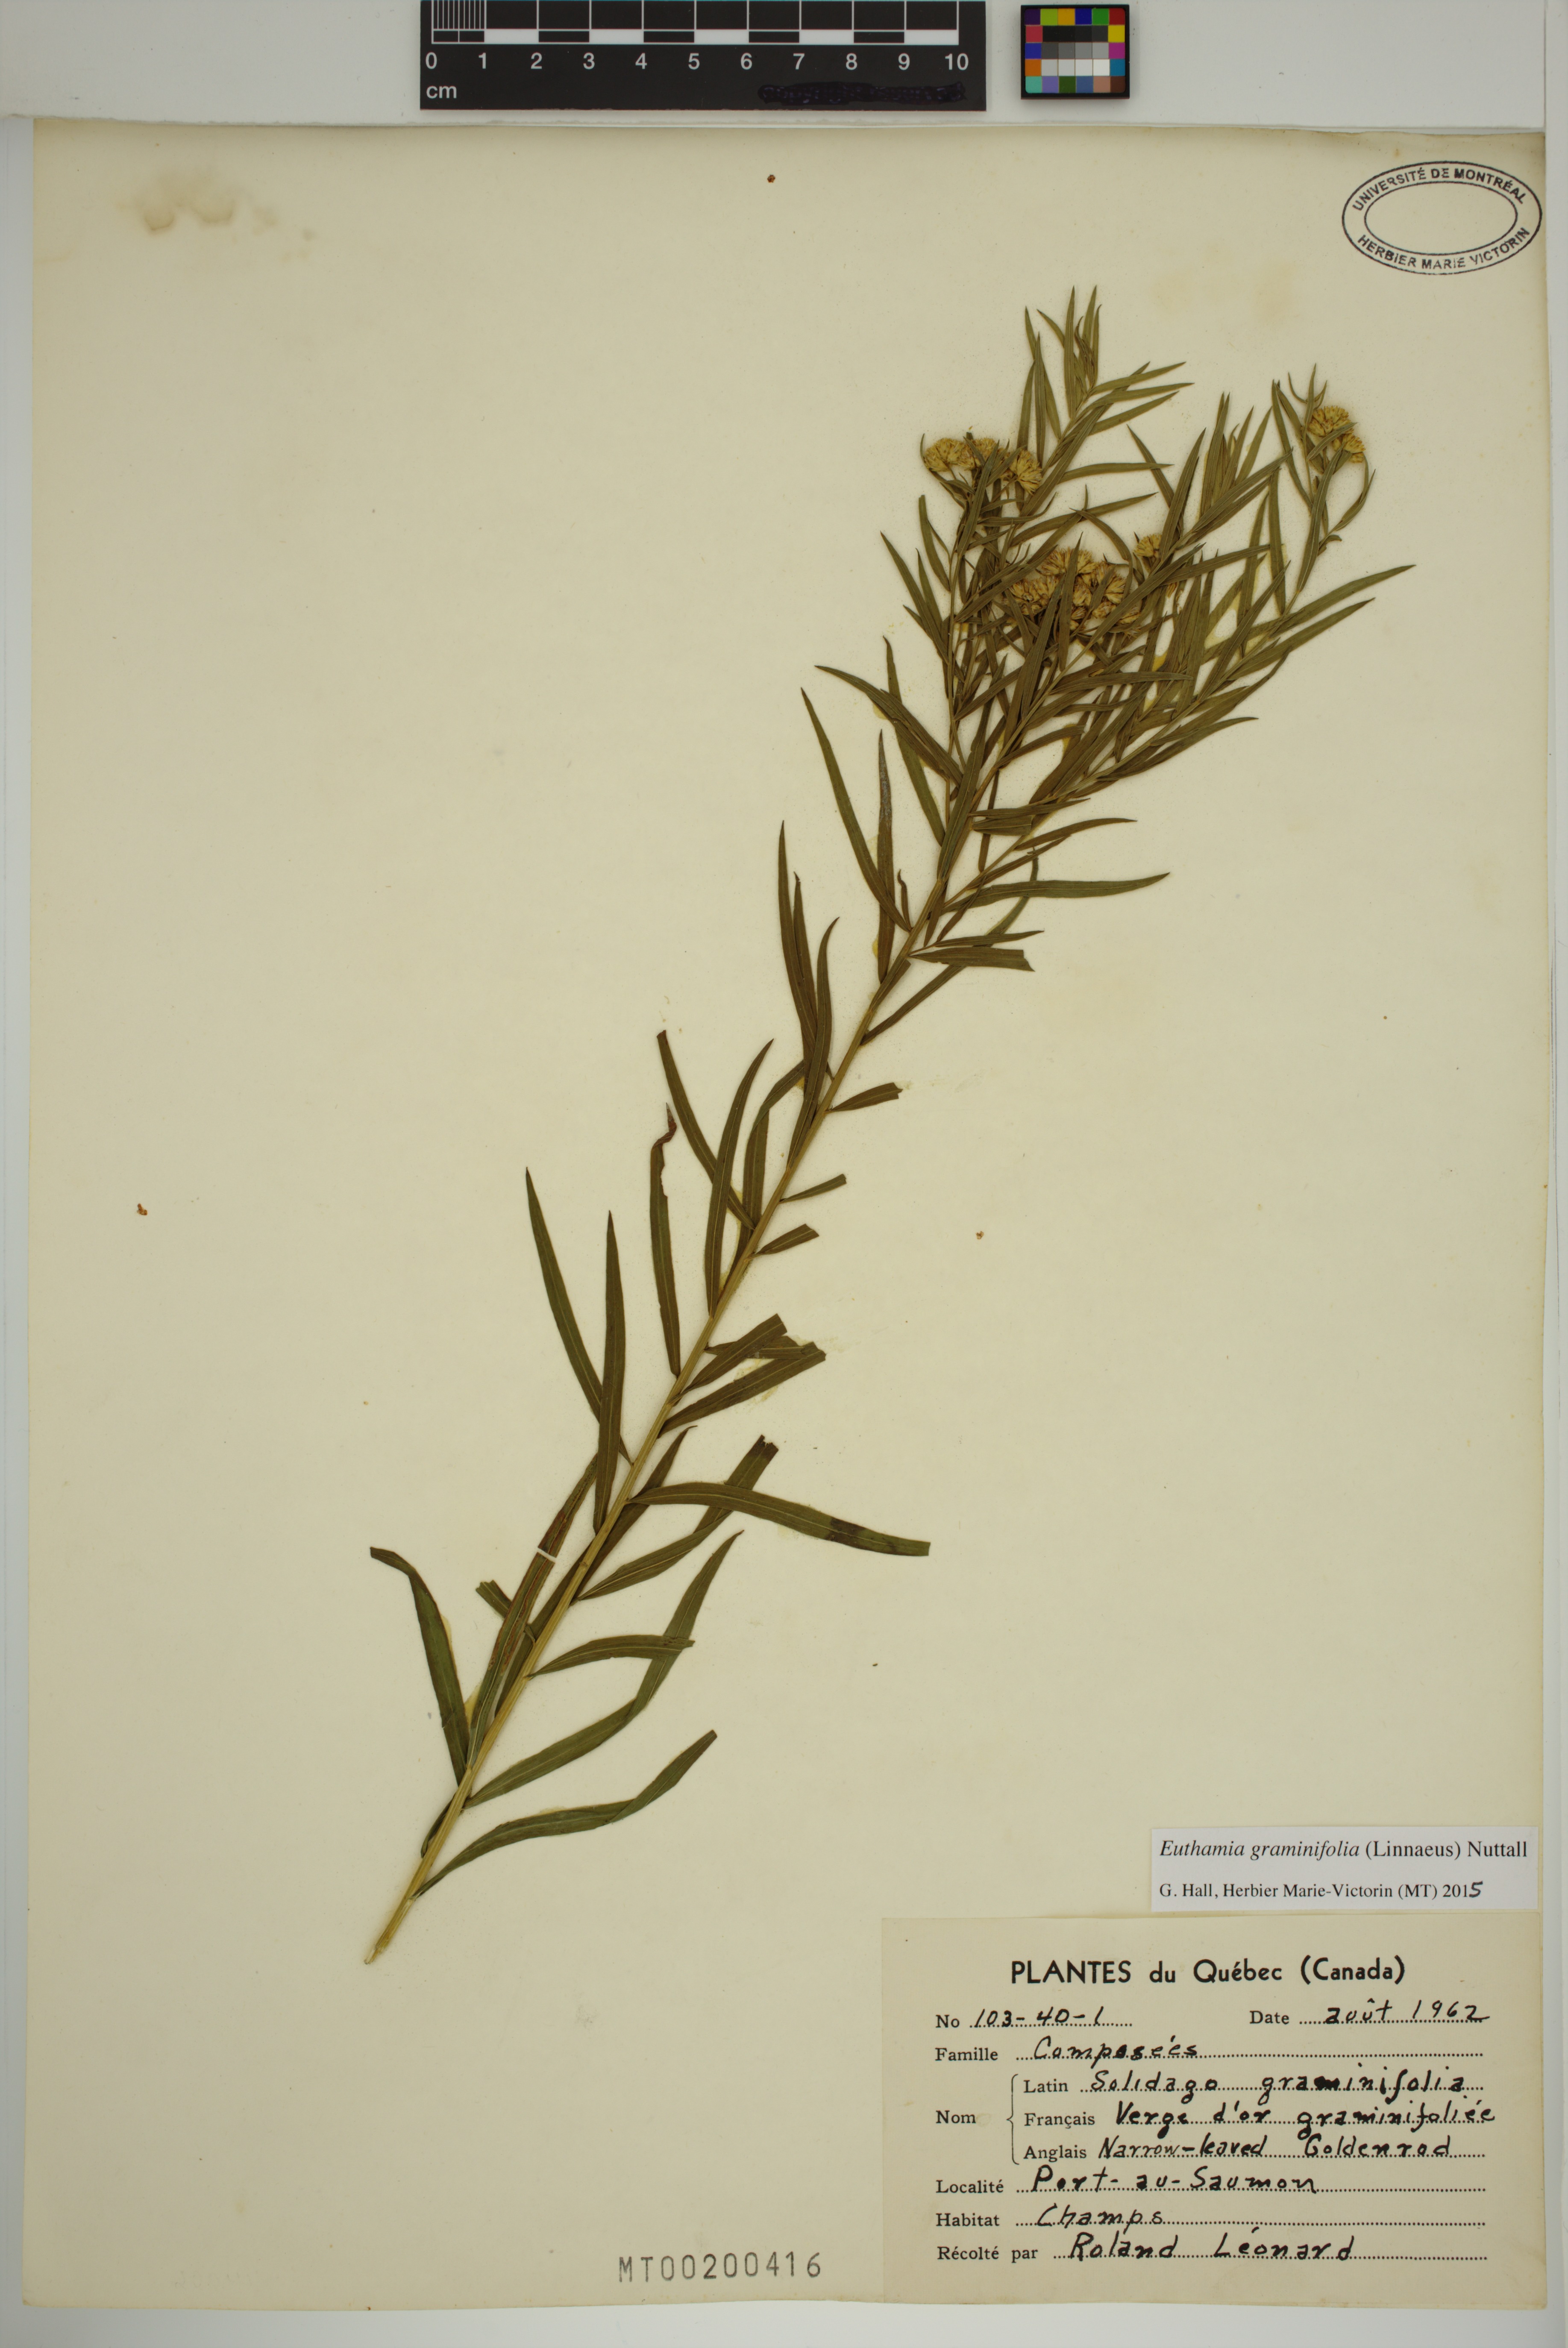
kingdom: Plantae
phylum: Tracheophyta
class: Magnoliopsida
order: Asterales
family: Asteraceae
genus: Euthamia
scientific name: Euthamia graminifolia
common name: Common goldentop
